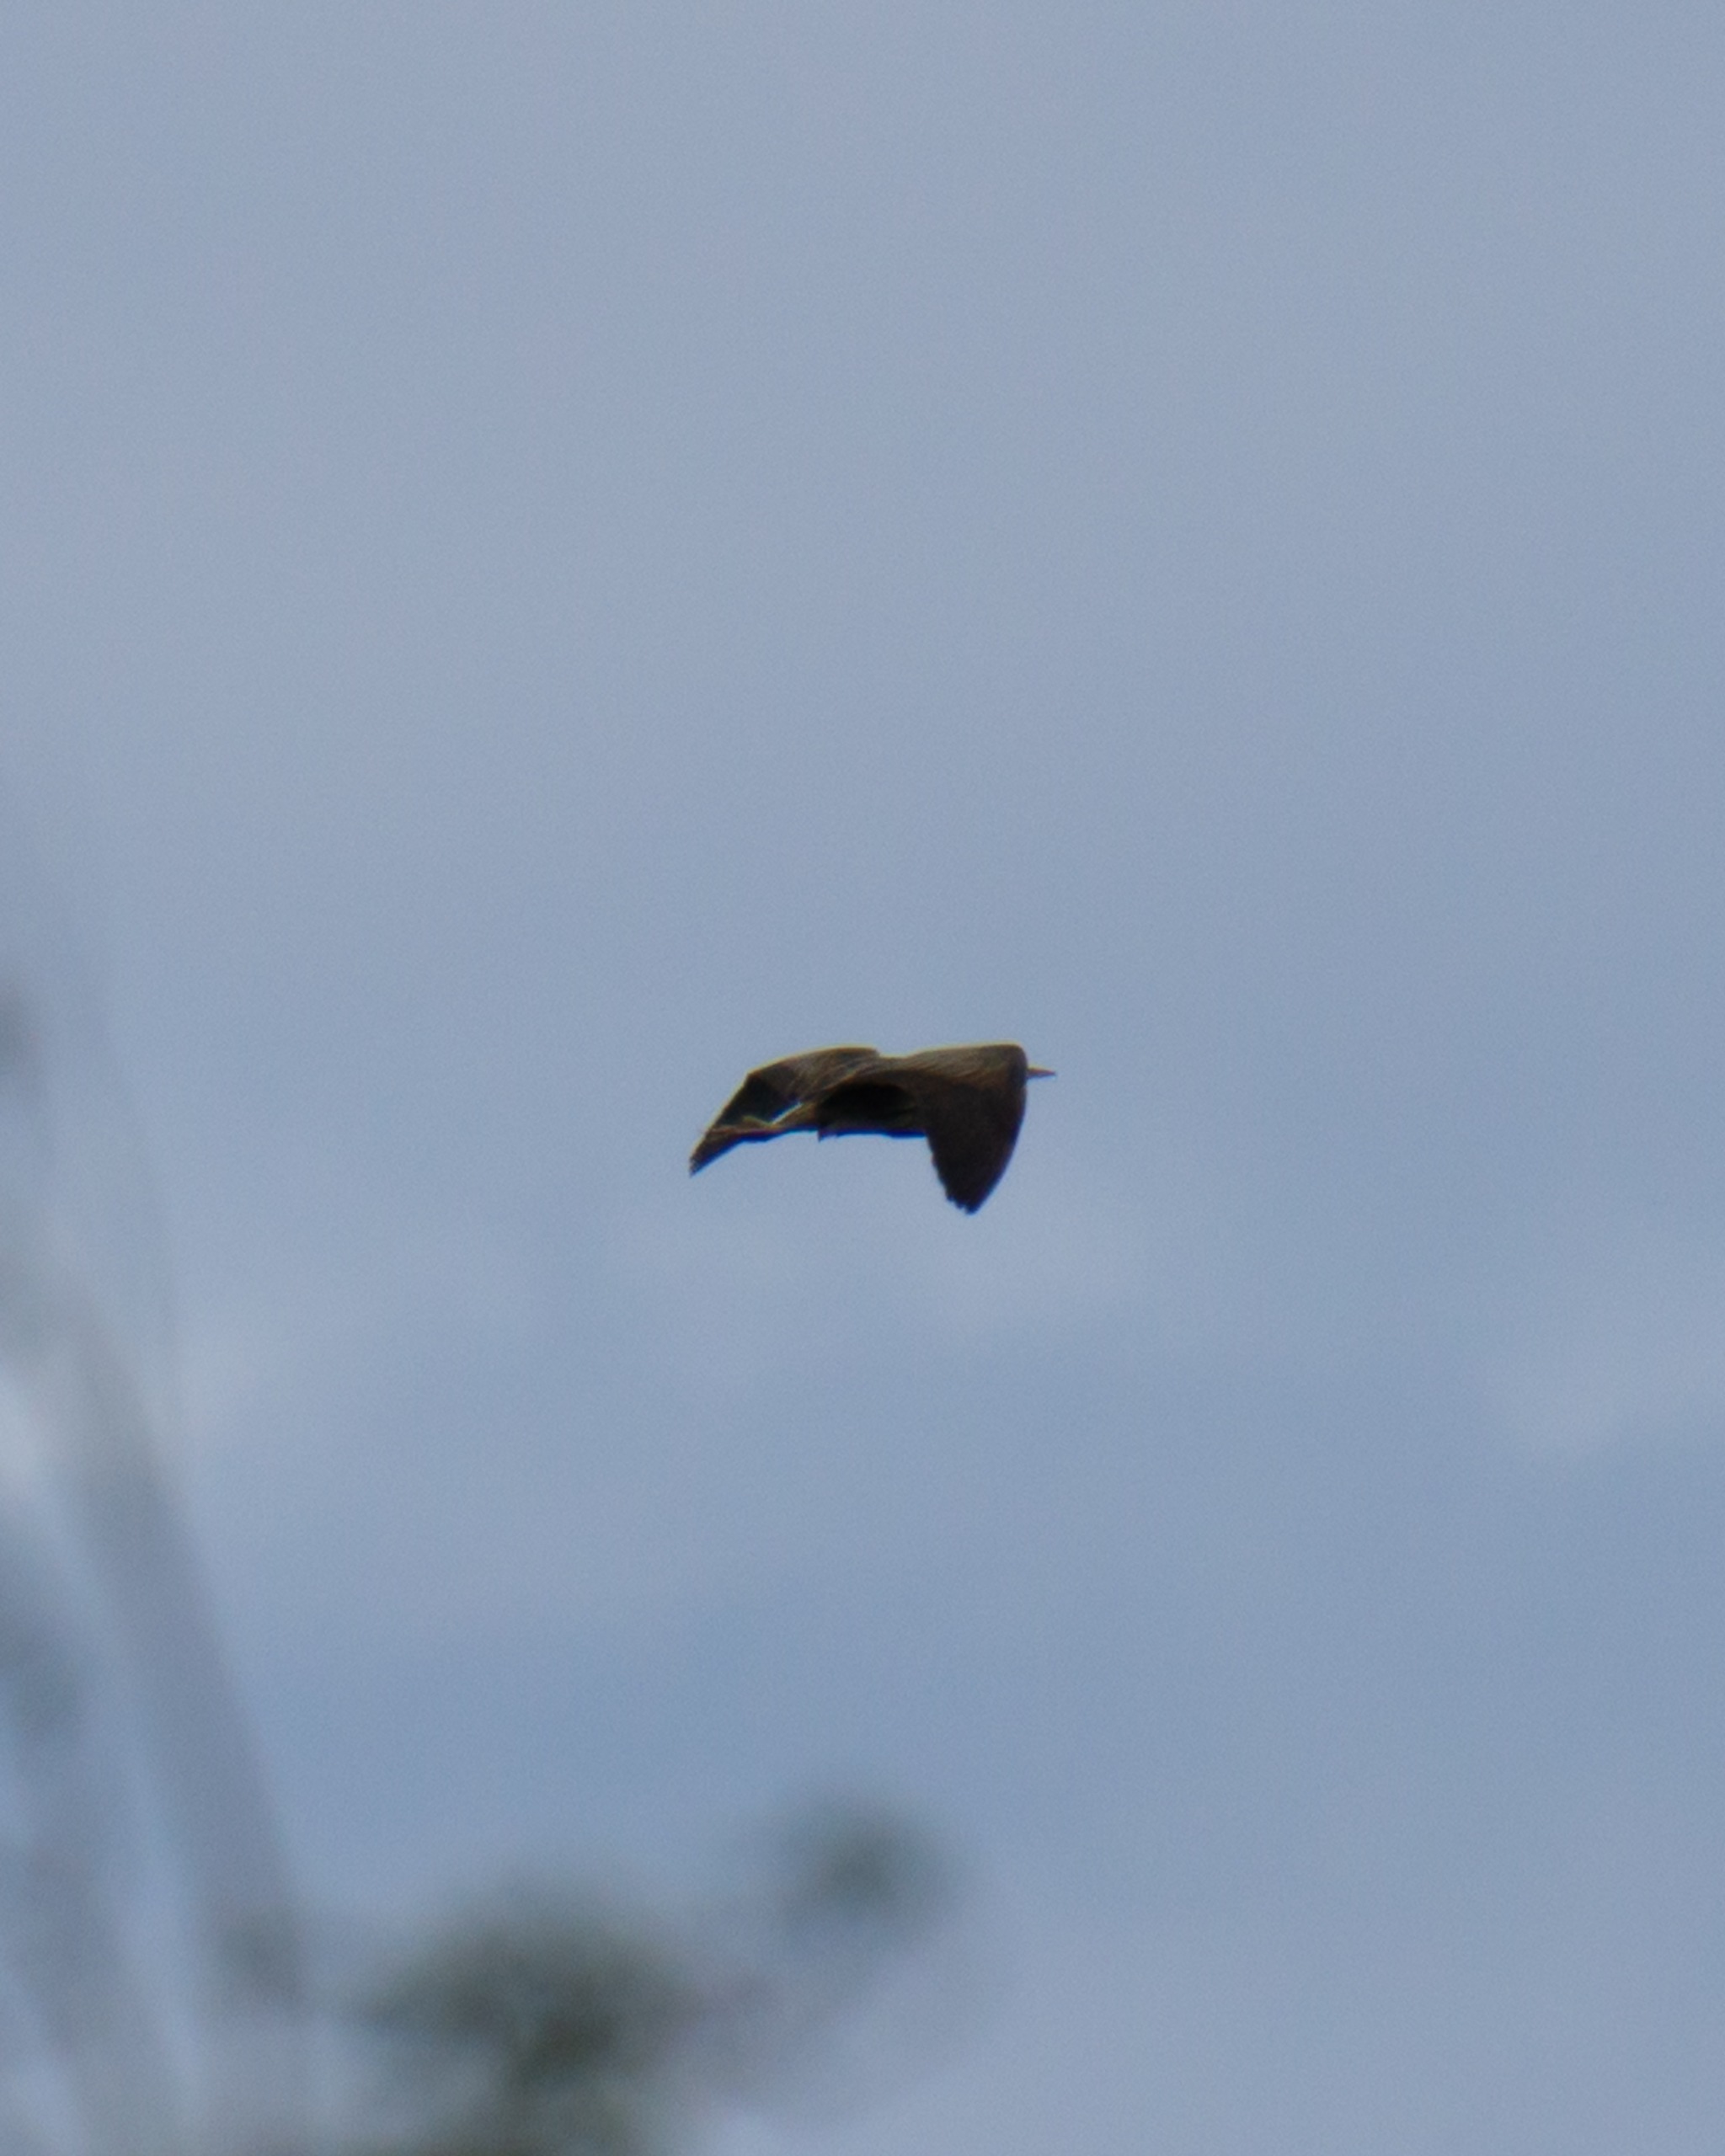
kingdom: Animalia
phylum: Chordata
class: Aves
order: Pelecaniformes
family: Ardeidae
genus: Botaurus
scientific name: Botaurus stellaris
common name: Rørdrum
